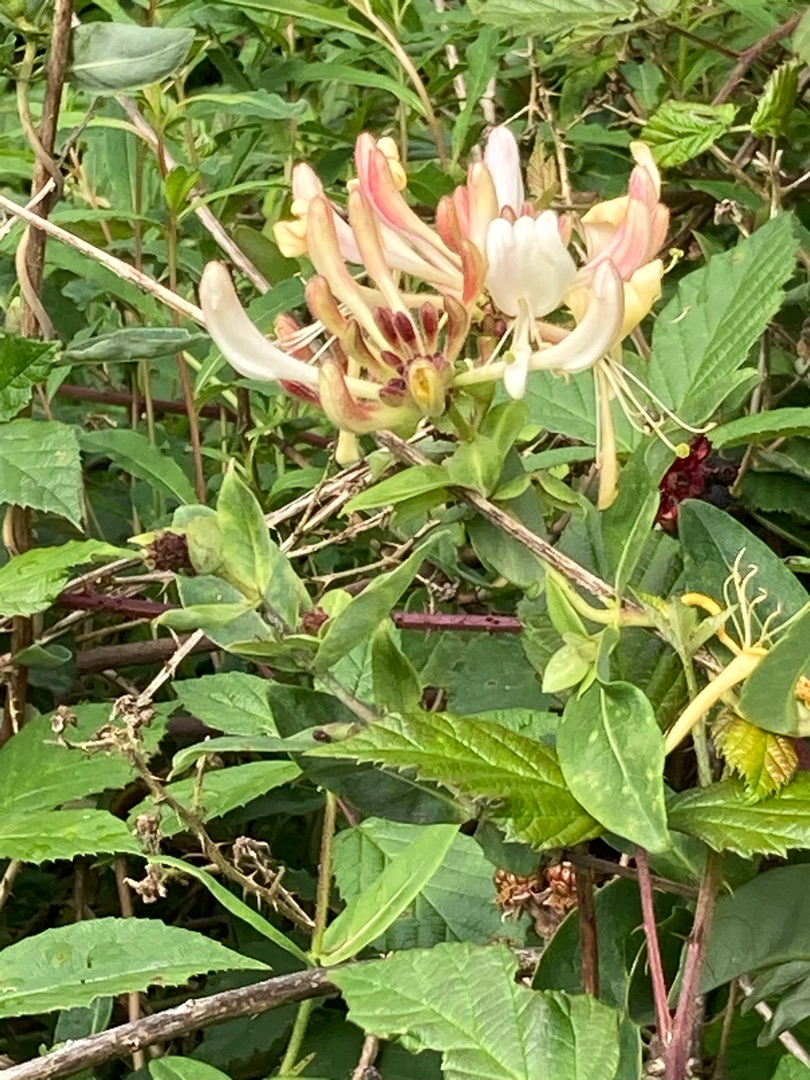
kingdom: Plantae
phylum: Tracheophyta
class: Magnoliopsida
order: Dipsacales
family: Caprifoliaceae
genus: Lonicera
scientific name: Lonicera periclymenum
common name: Almindelig gedeblad
